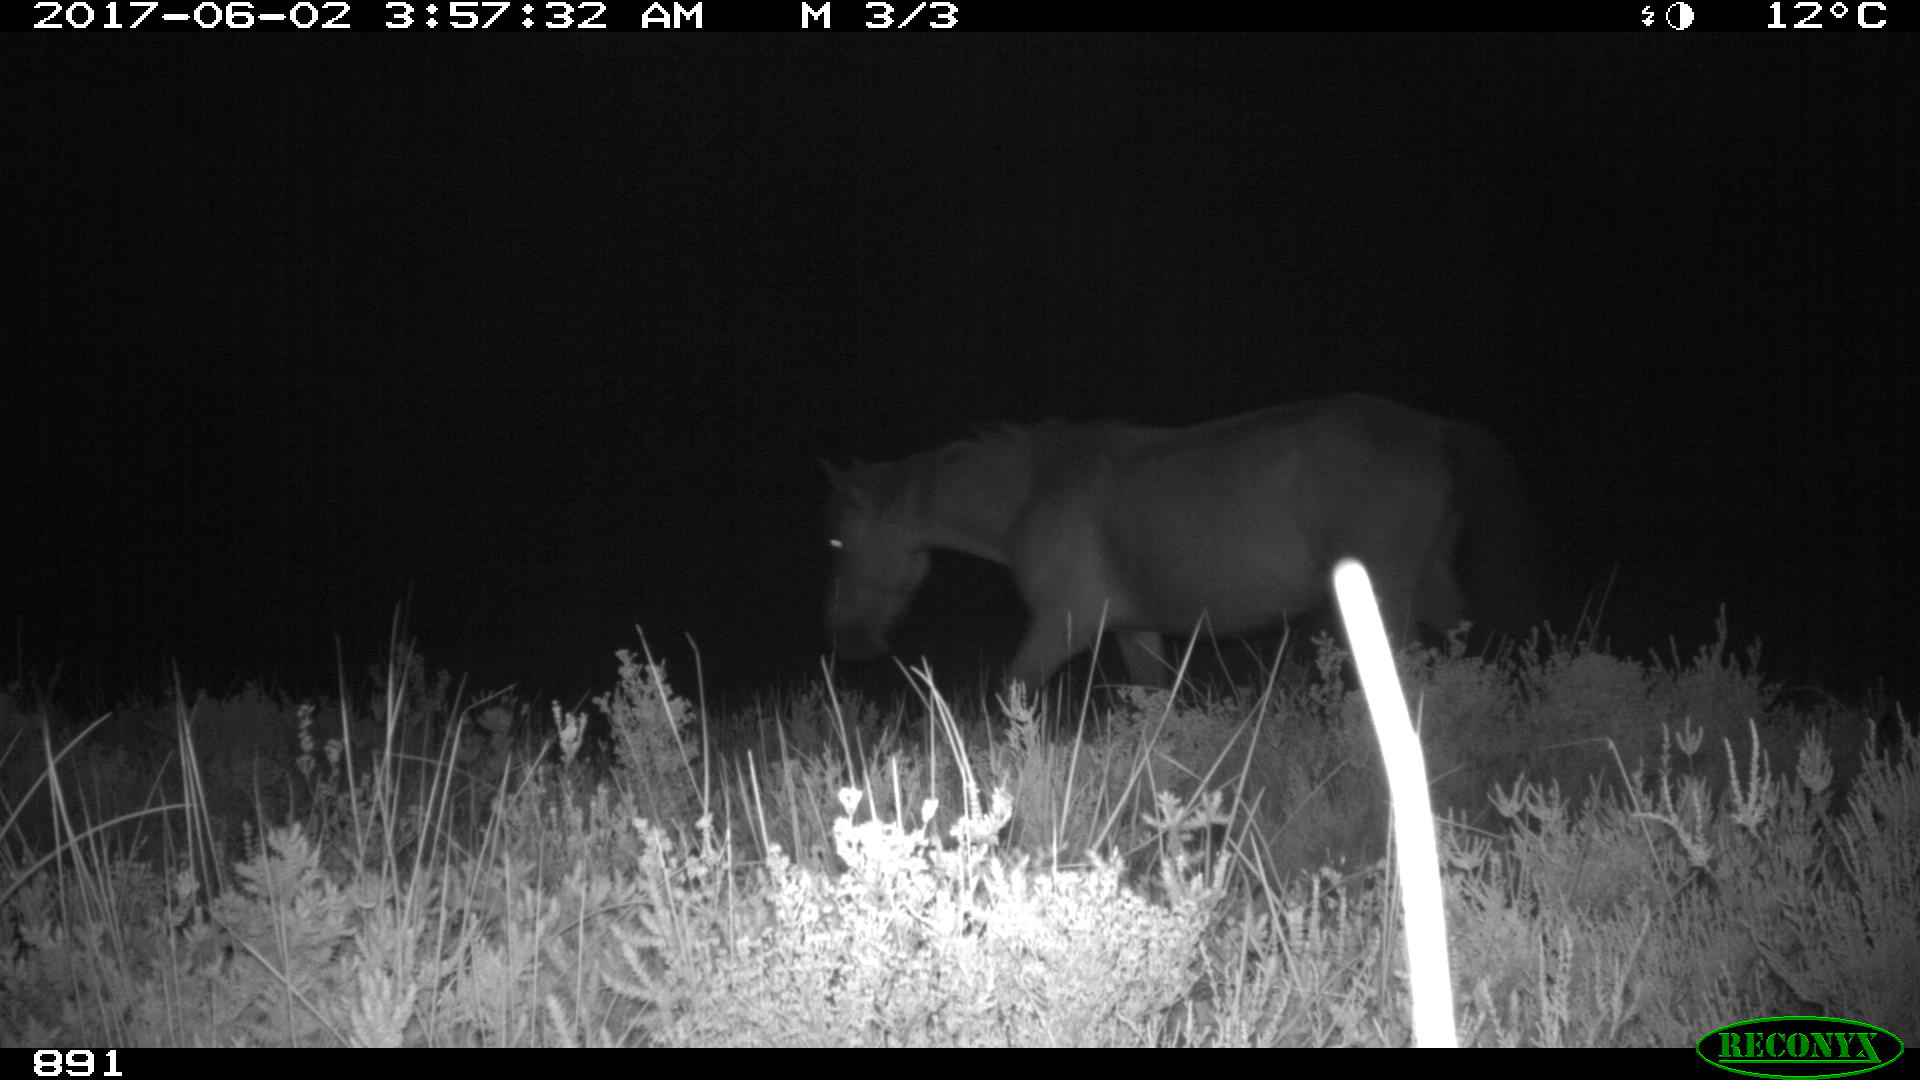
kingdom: Animalia
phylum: Chordata
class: Mammalia
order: Perissodactyla
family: Equidae
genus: Equus
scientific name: Equus caballus
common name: Horse
